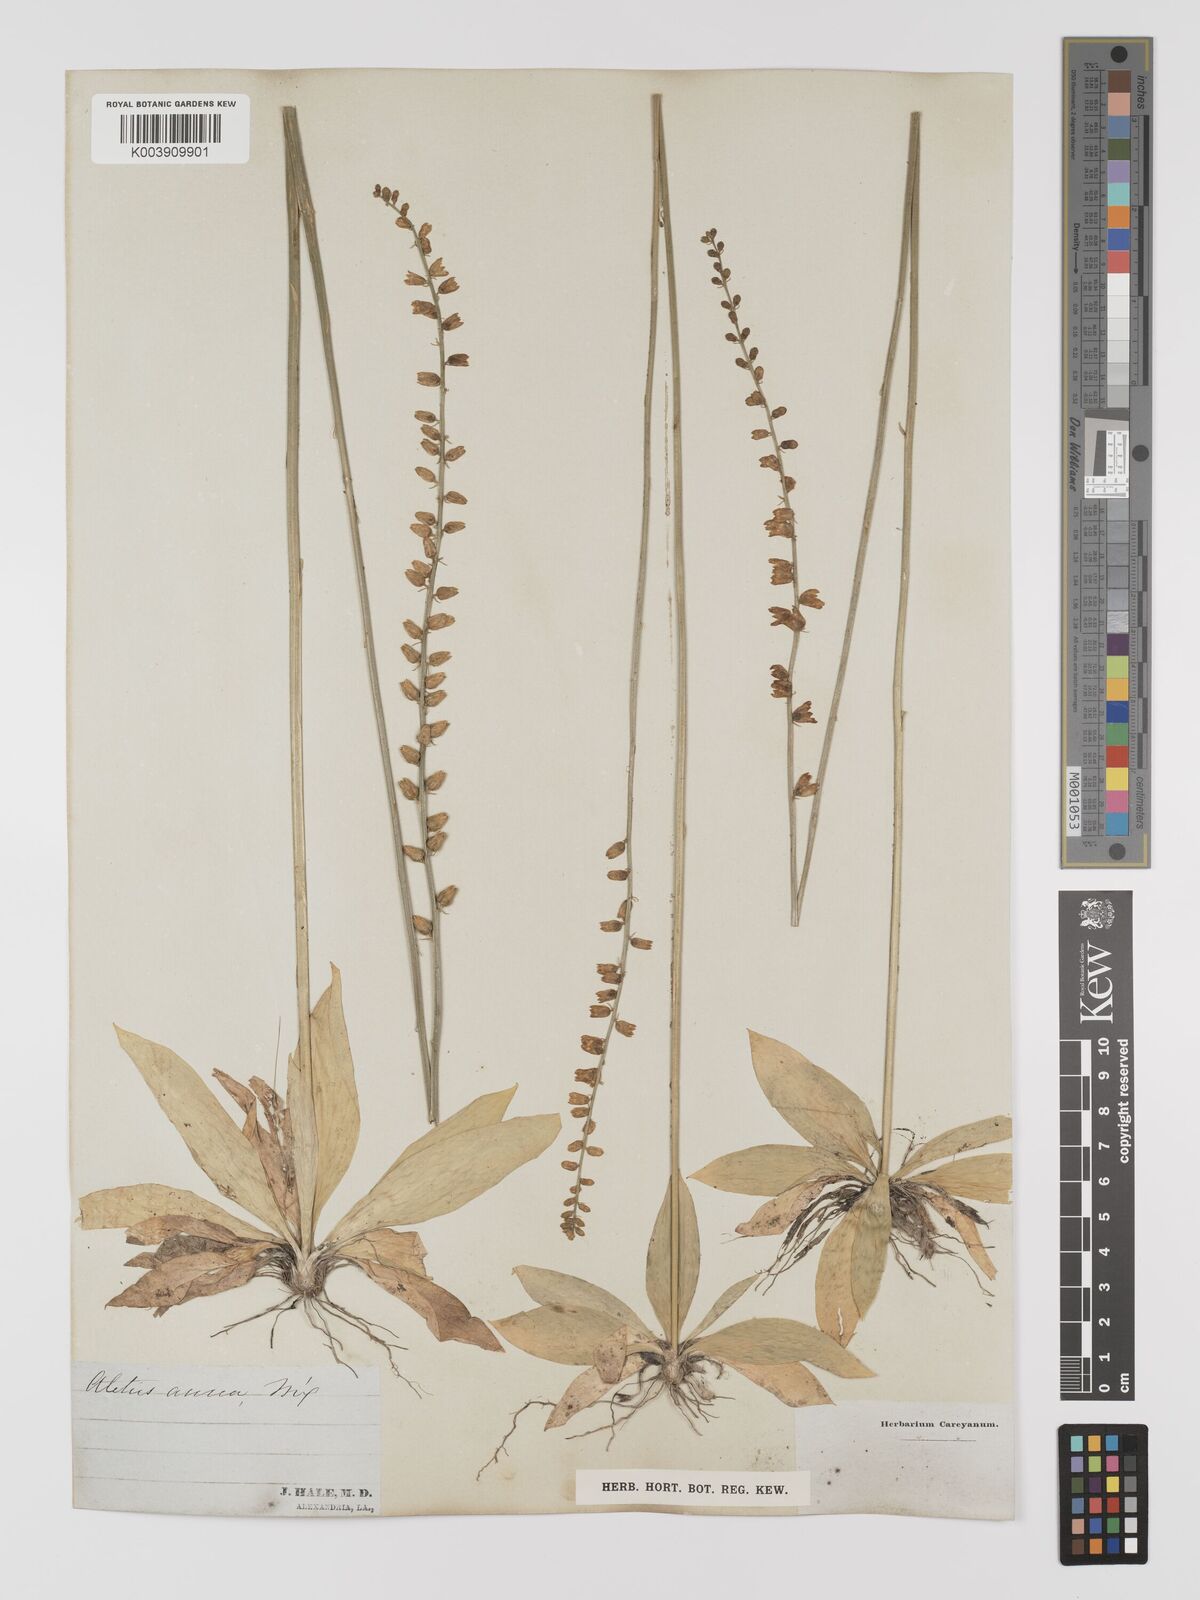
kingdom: Plantae
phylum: Tracheophyta
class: Liliopsida
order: Dioscoreales
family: Nartheciaceae
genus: Aletris
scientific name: Aletris aurea
